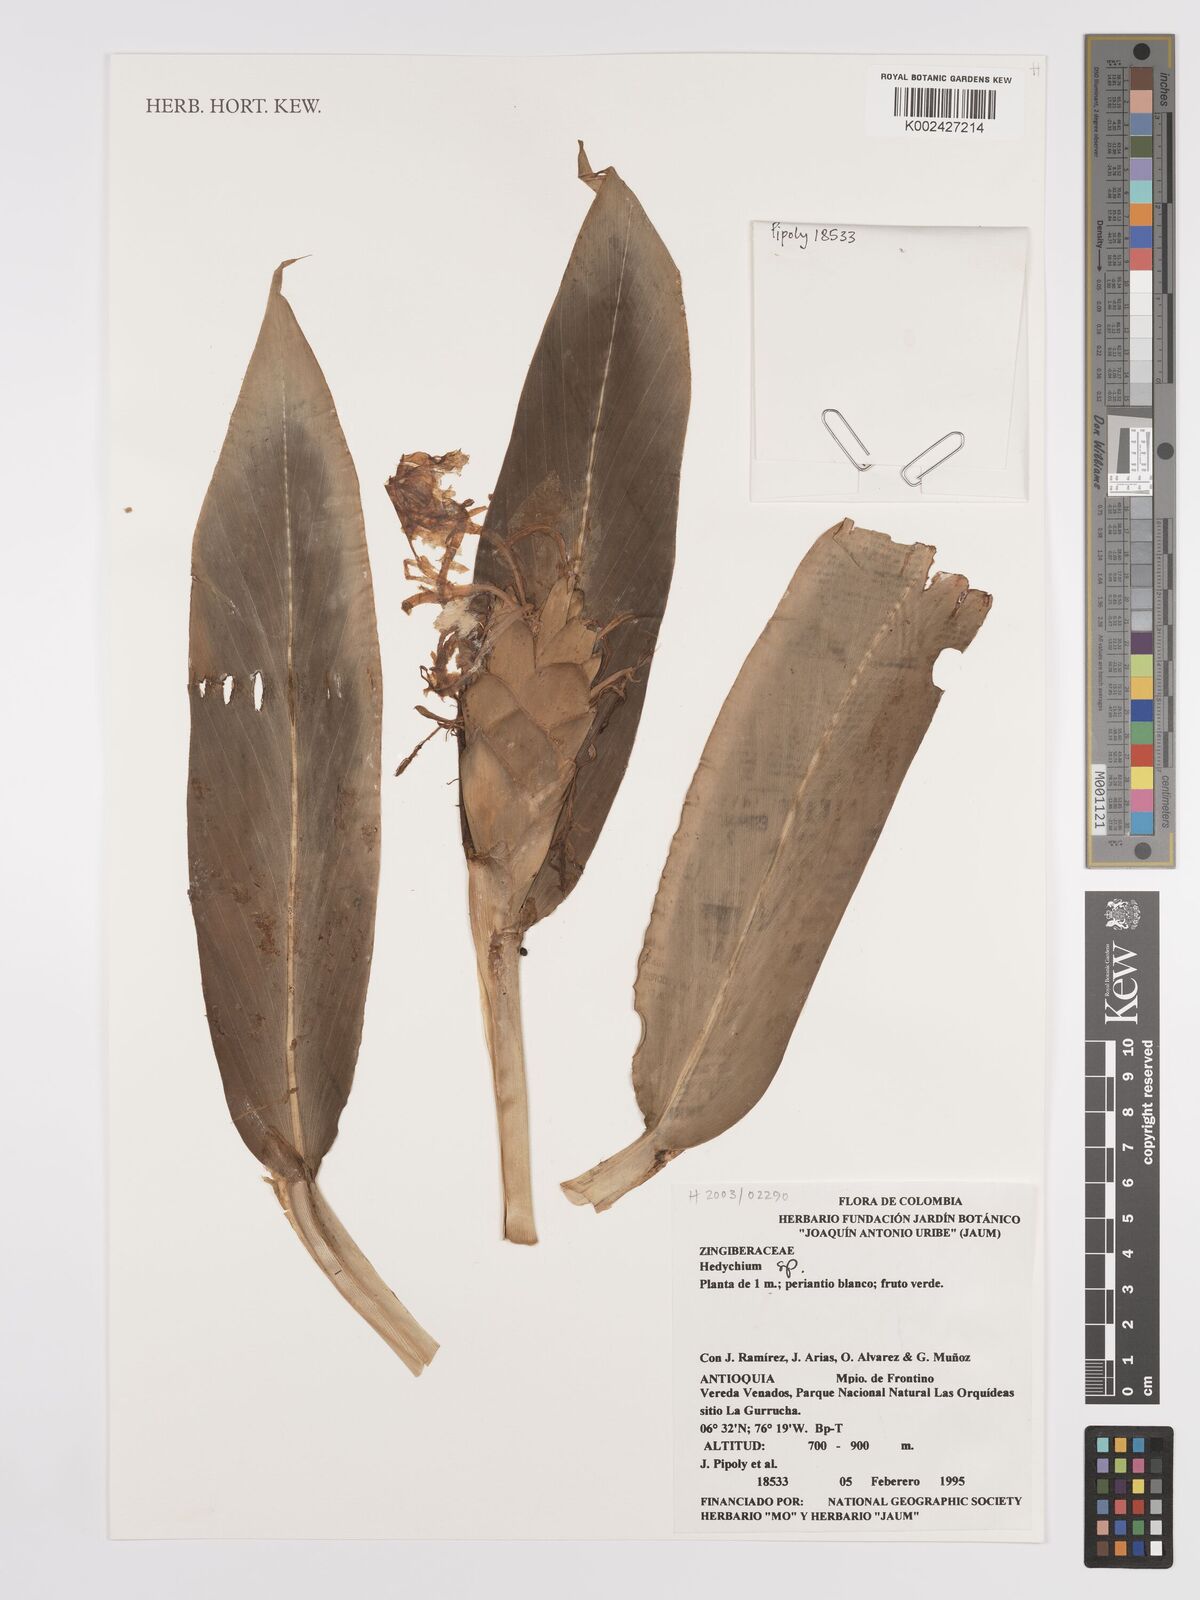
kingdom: Plantae
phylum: Tracheophyta
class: Liliopsida
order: Zingiberales
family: Zingiberaceae
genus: Hedychium
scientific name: Hedychium coronarium
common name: White garland-lily
